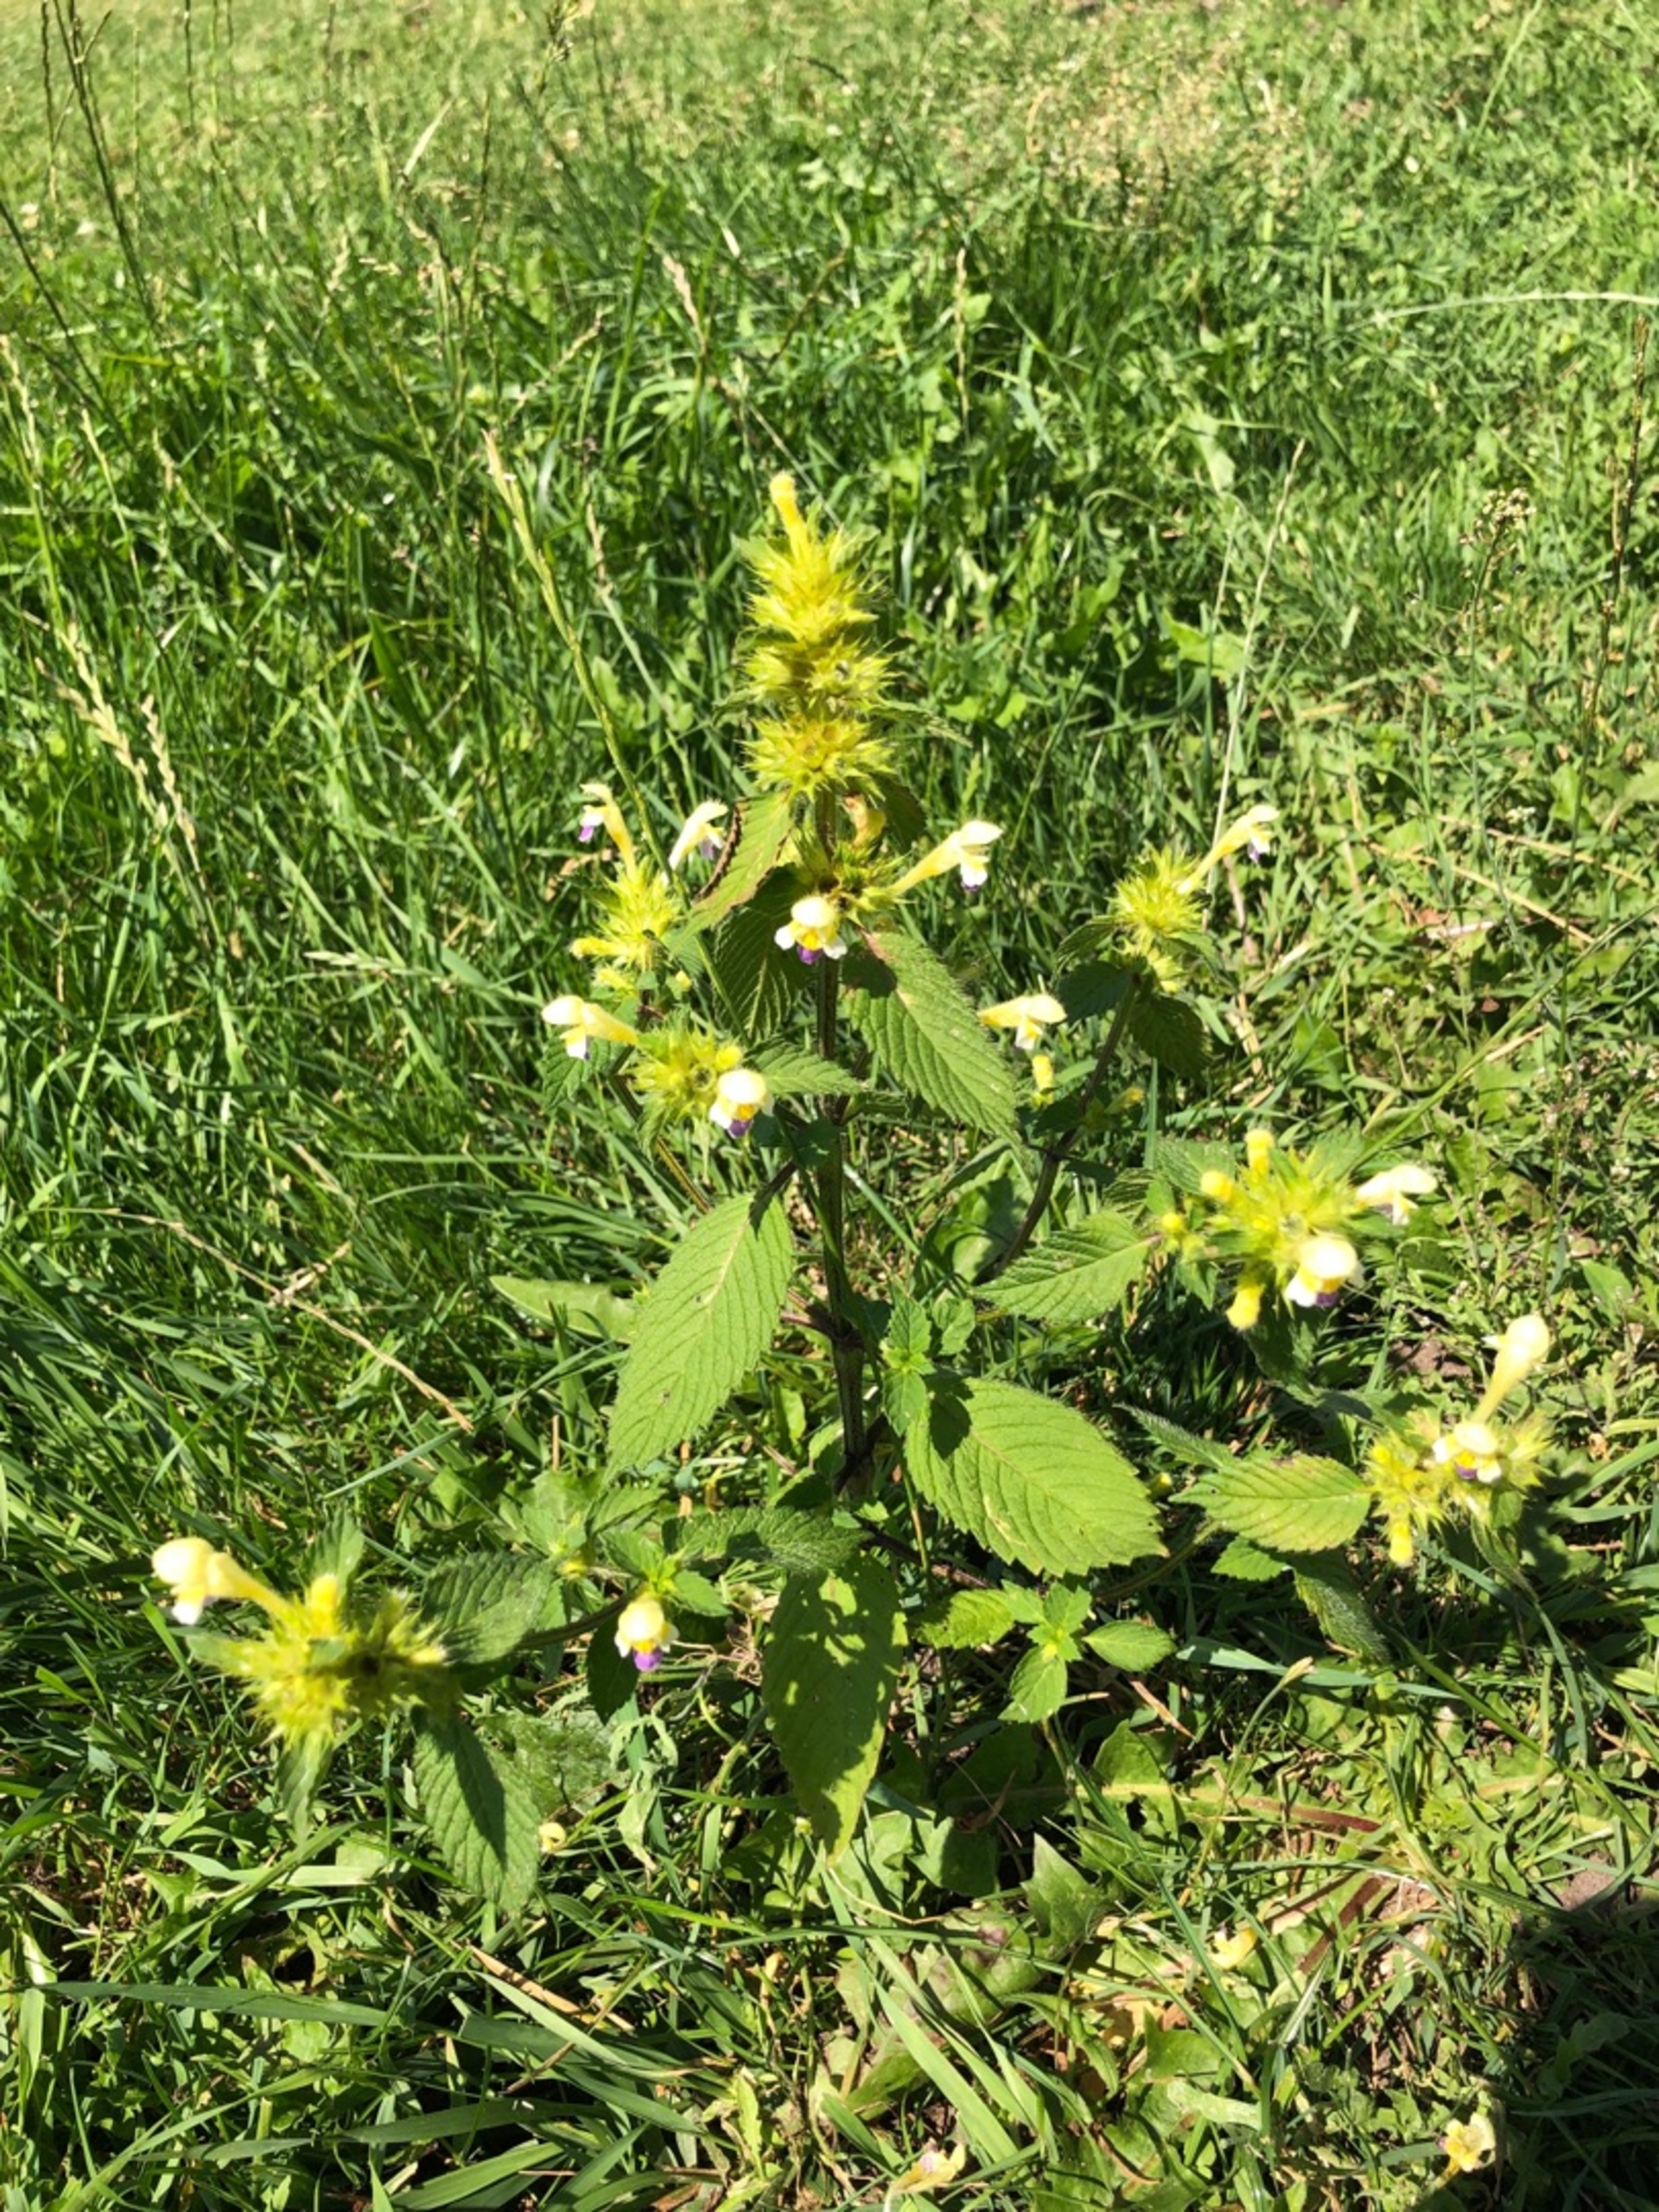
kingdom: Plantae
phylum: Tracheophyta
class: Magnoliopsida
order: Lamiales
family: Lamiaceae
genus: Galeopsis
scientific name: Galeopsis speciosa
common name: Hamp-hanekro
